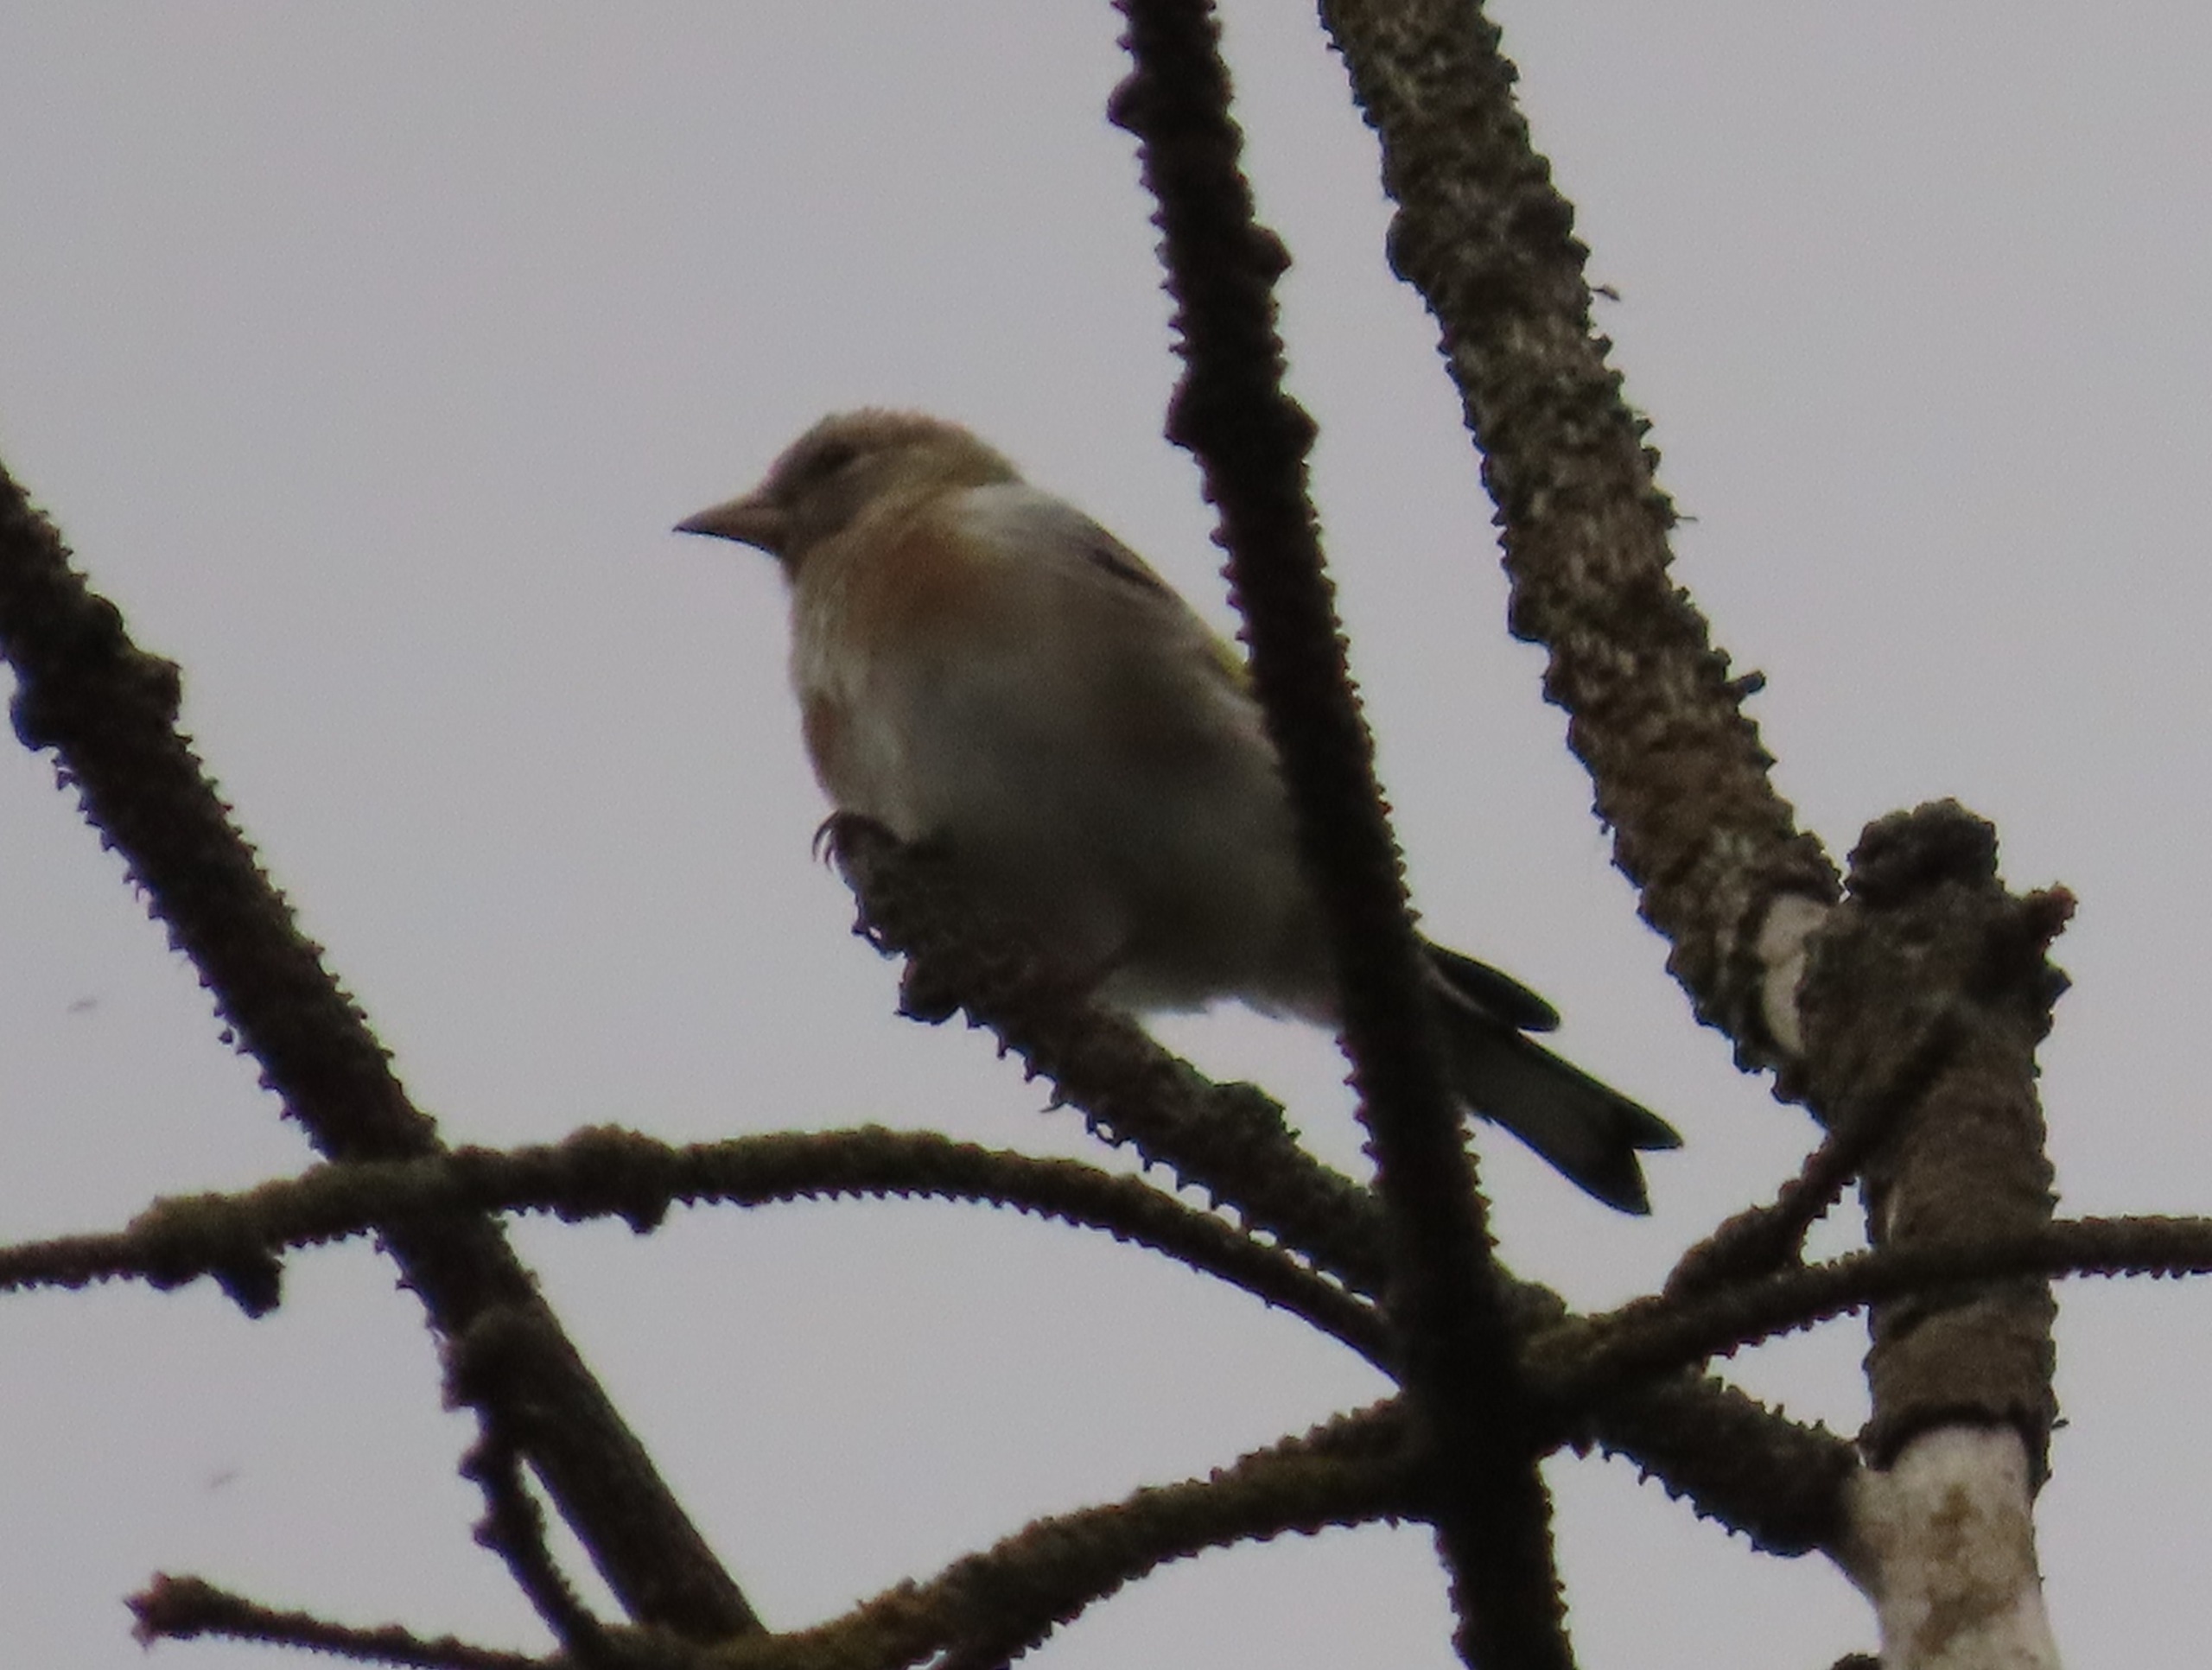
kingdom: Animalia
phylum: Chordata
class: Aves
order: Passeriformes
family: Fringillidae
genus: Carduelis
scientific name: Carduelis carduelis
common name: Stillits
